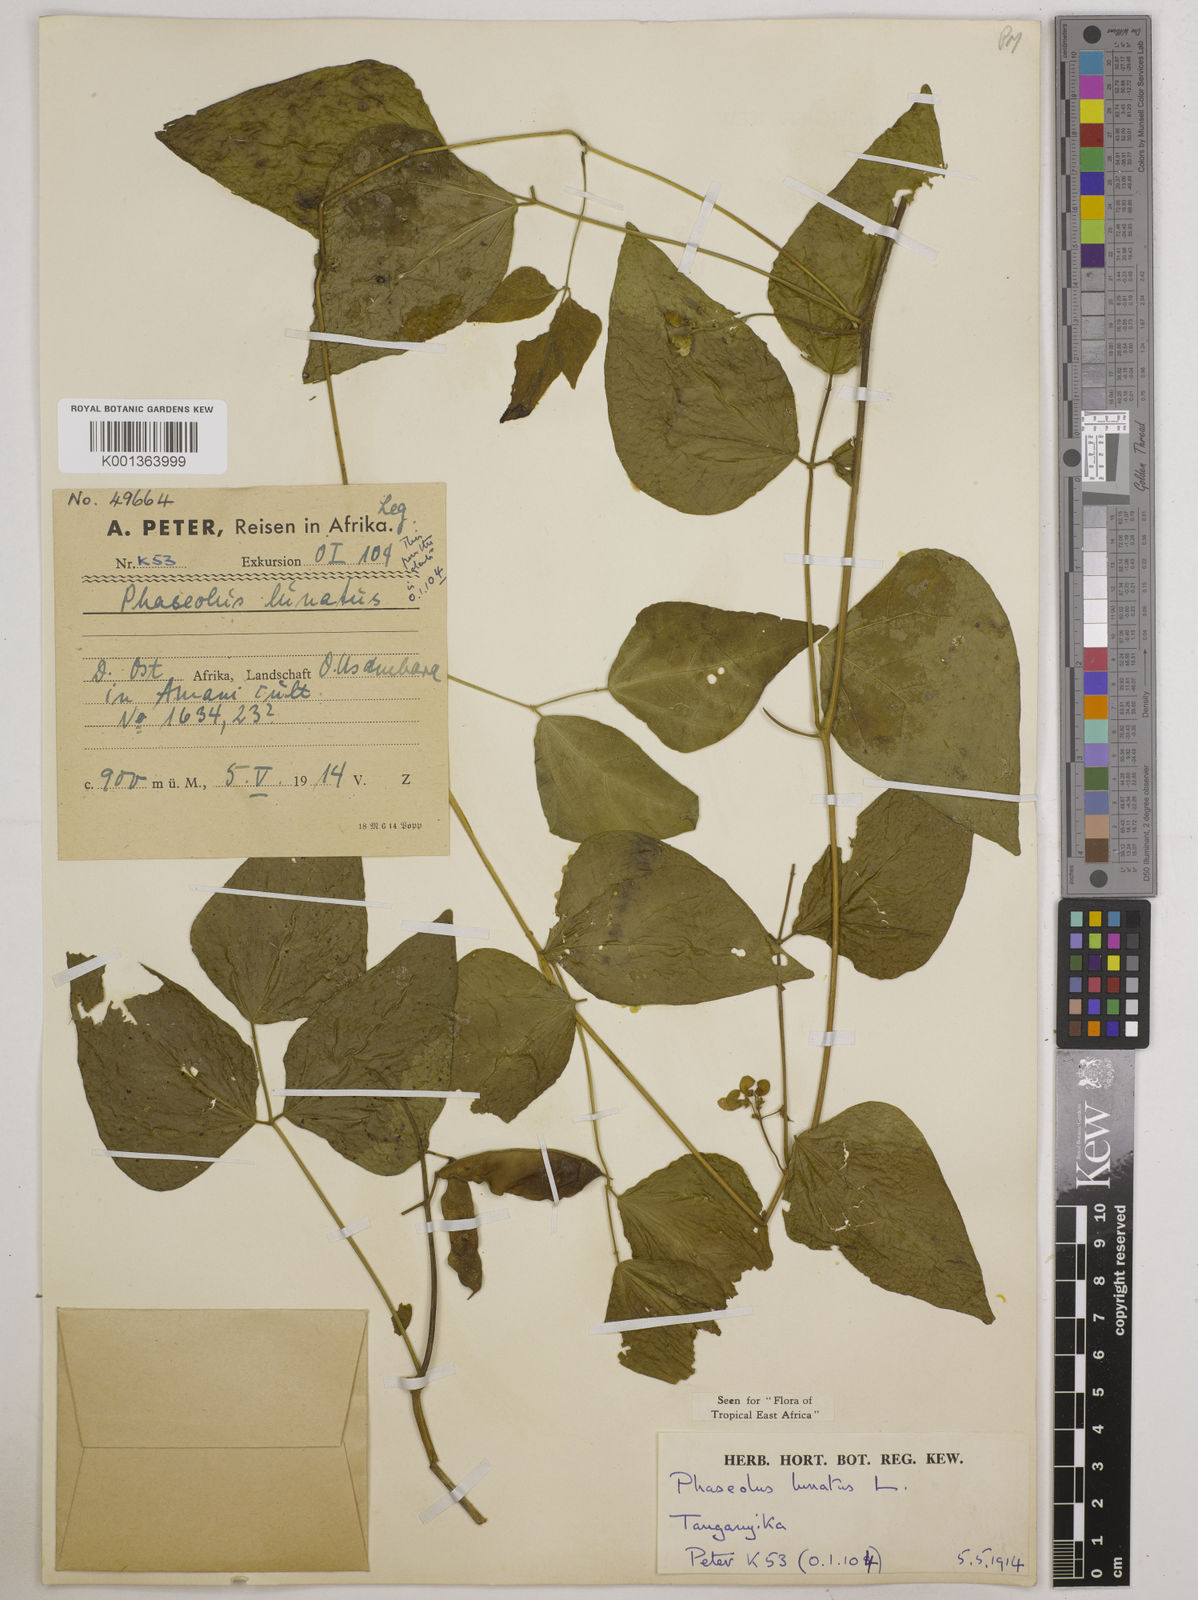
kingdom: Plantae
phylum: Tracheophyta
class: Magnoliopsida
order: Fabales
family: Fabaceae
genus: Phaseolus
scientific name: Phaseolus lunatus
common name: Sieva bean
